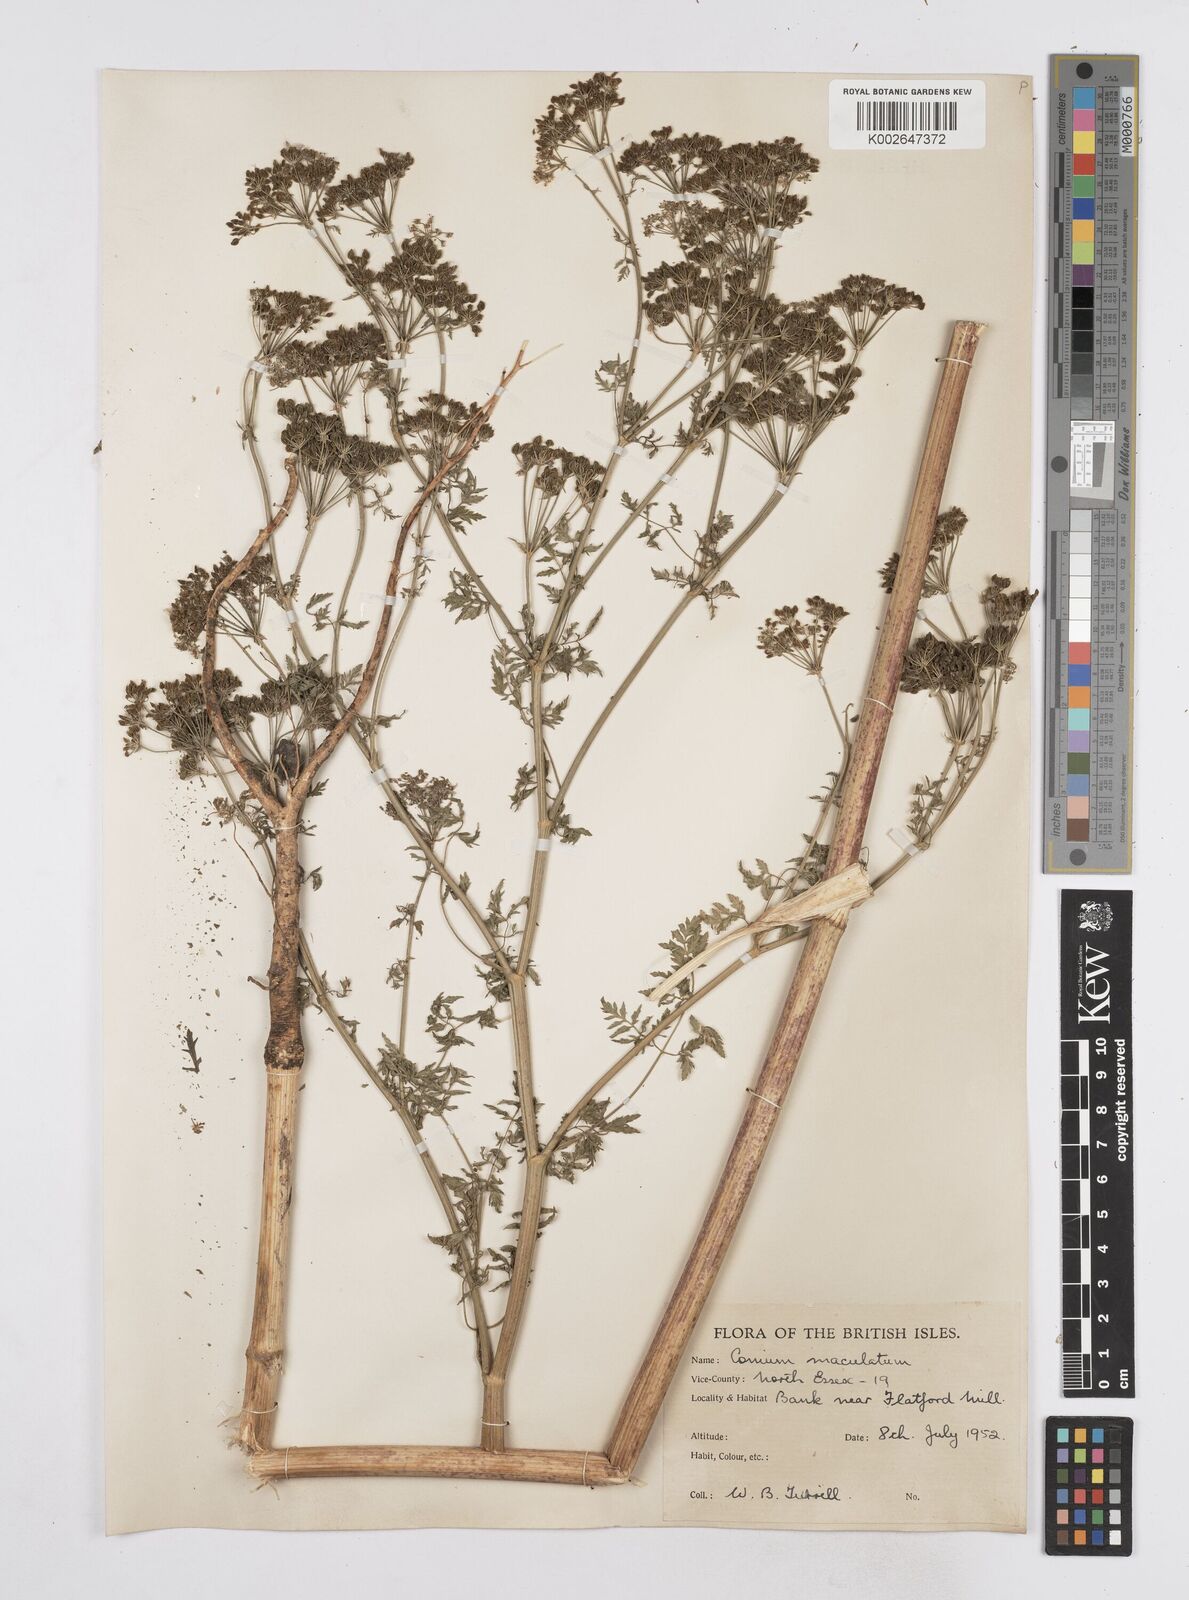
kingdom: Plantae
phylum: Tracheophyta
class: Magnoliopsida
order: Apiales
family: Apiaceae
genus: Conium
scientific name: Conium maculatum
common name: Hemlock
